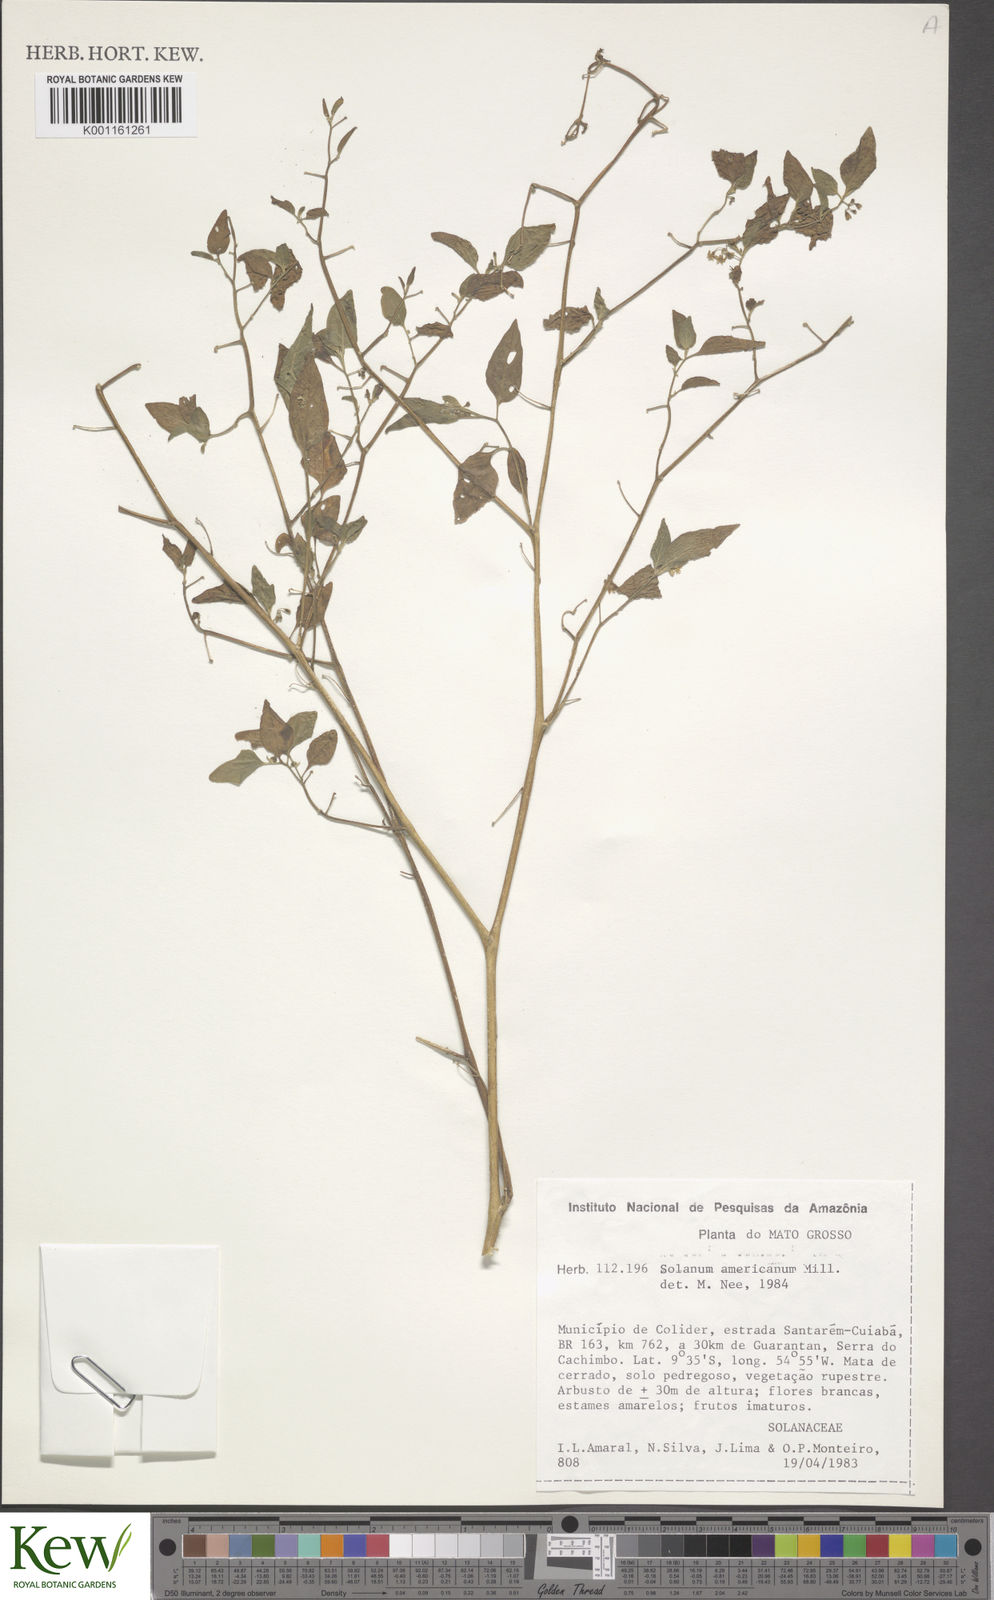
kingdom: Plantae
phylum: Tracheophyta
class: Magnoliopsida
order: Solanales
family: Solanaceae
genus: Solanum
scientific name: Solanum americanum
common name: American black nightshade
